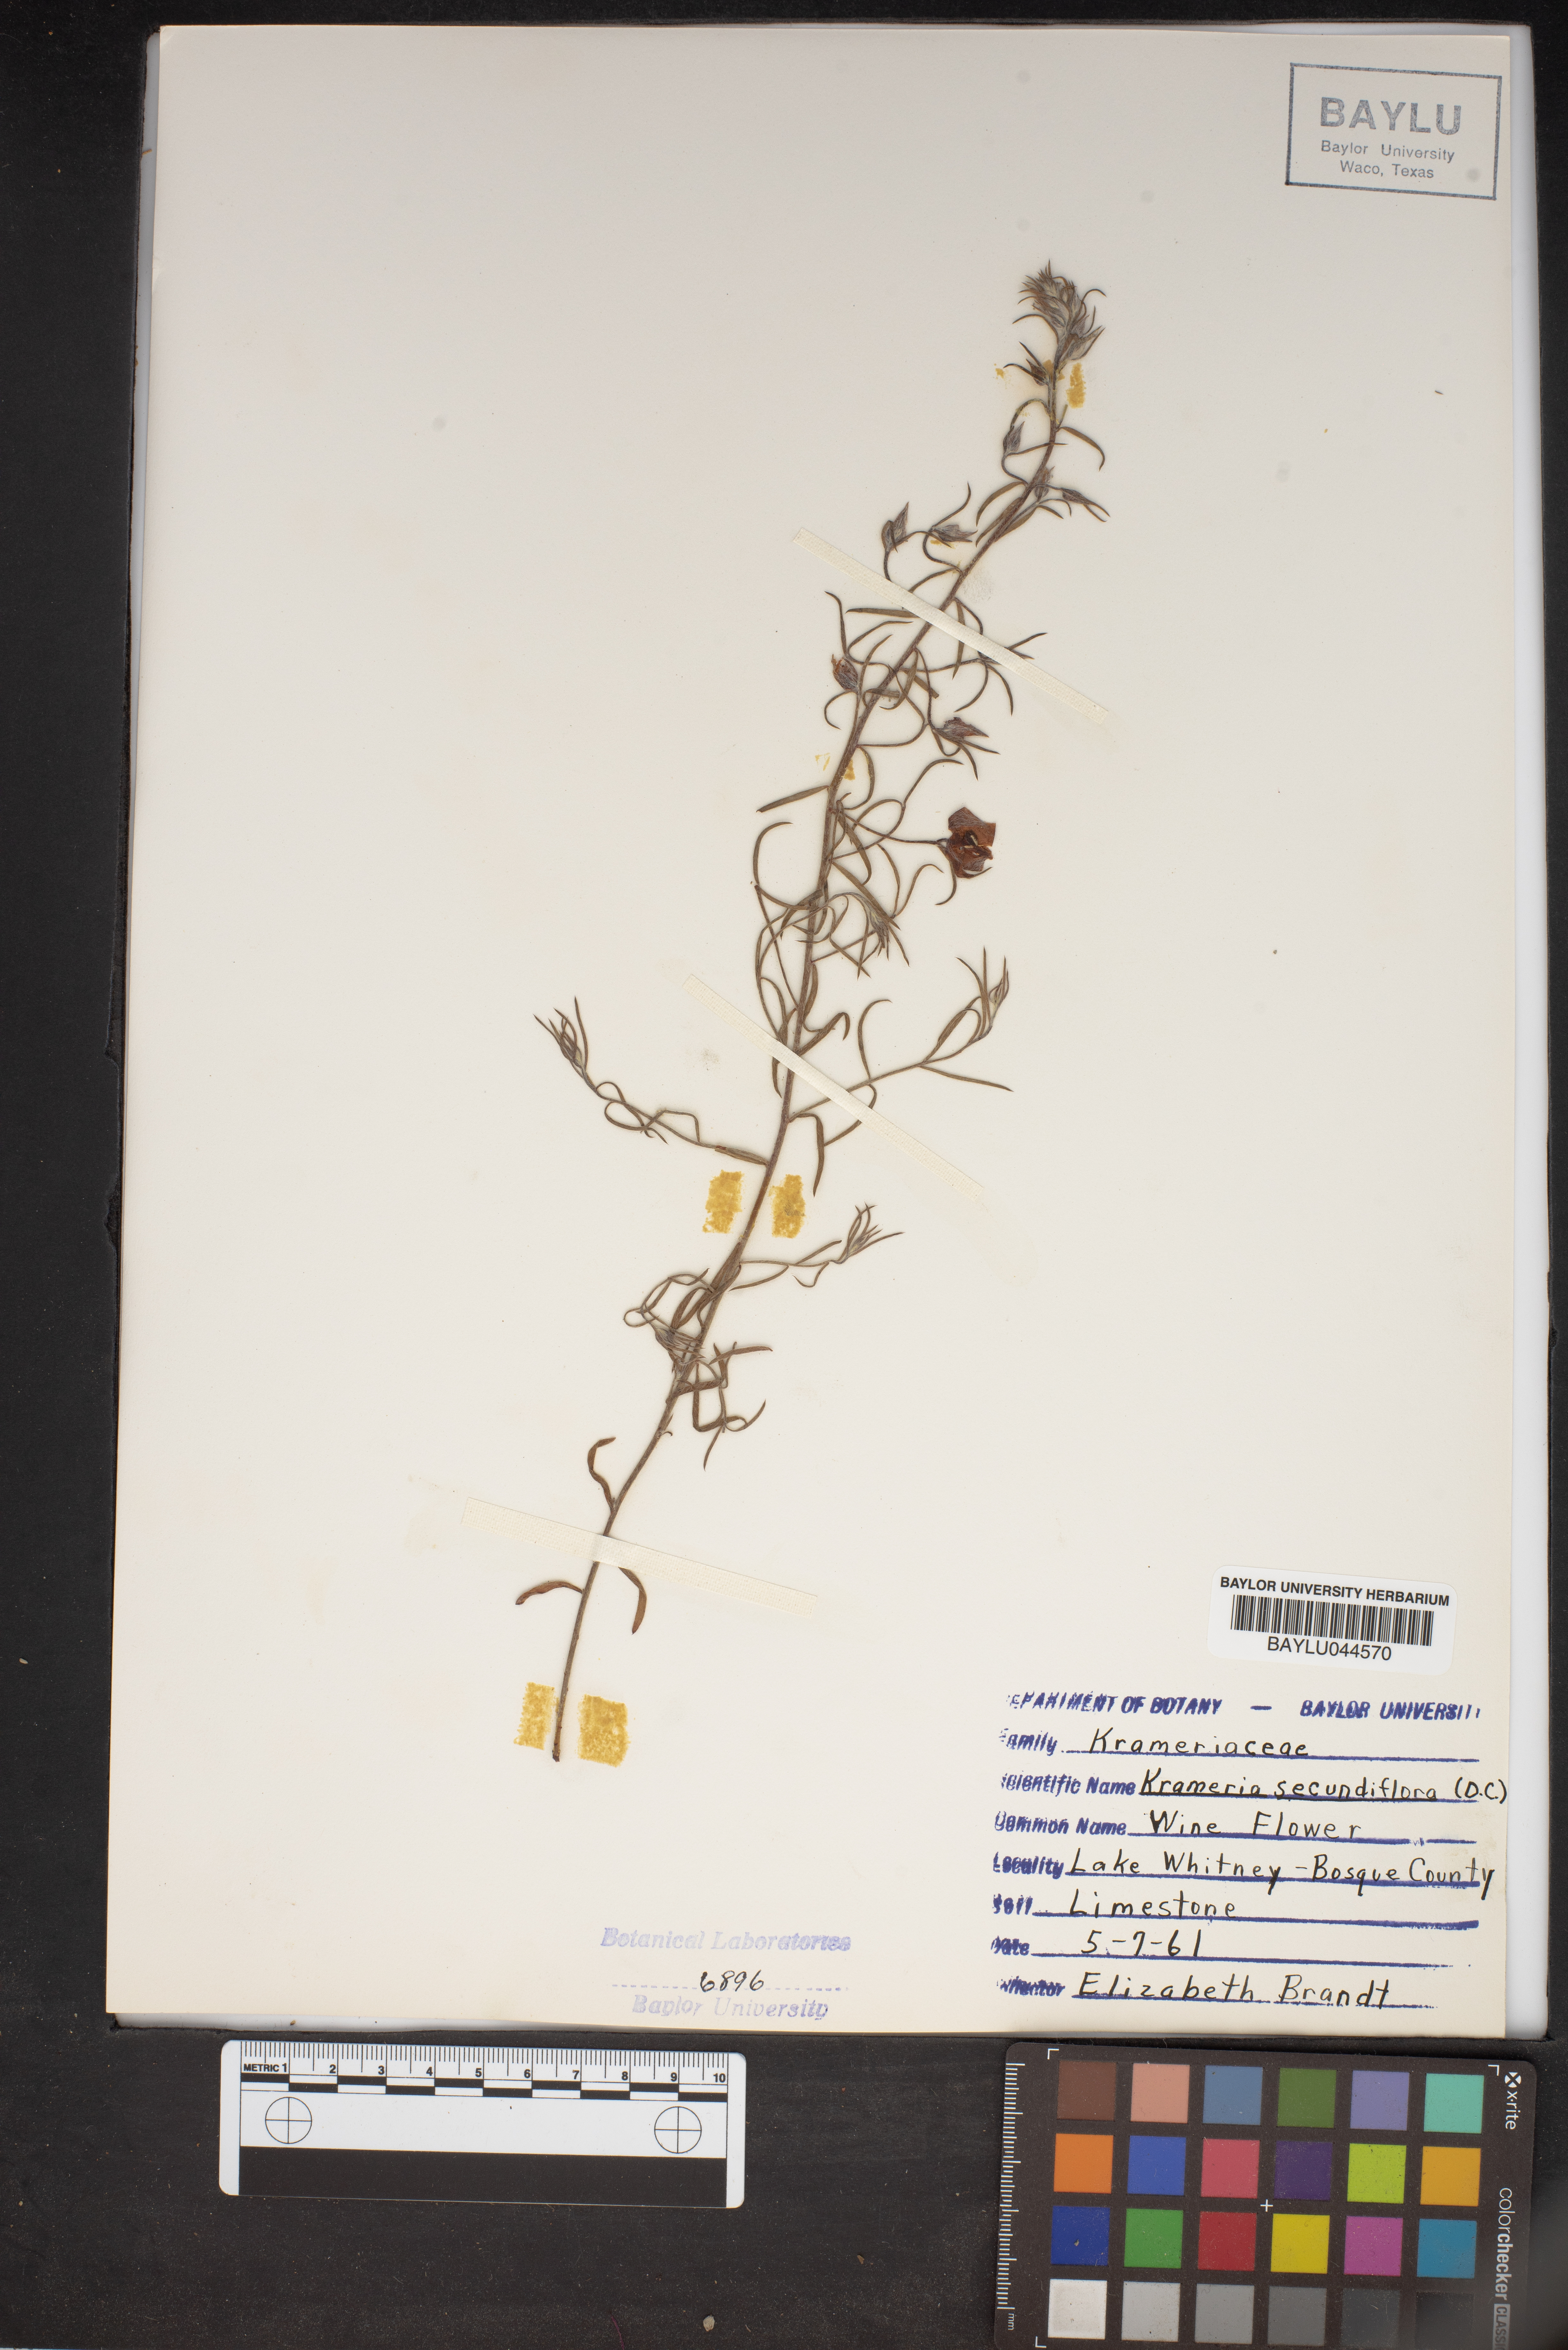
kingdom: Plantae
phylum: Tracheophyta
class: Magnoliopsida
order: Zygophyllales
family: Krameriaceae
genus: Krameria
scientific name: Krameria secundiflora
